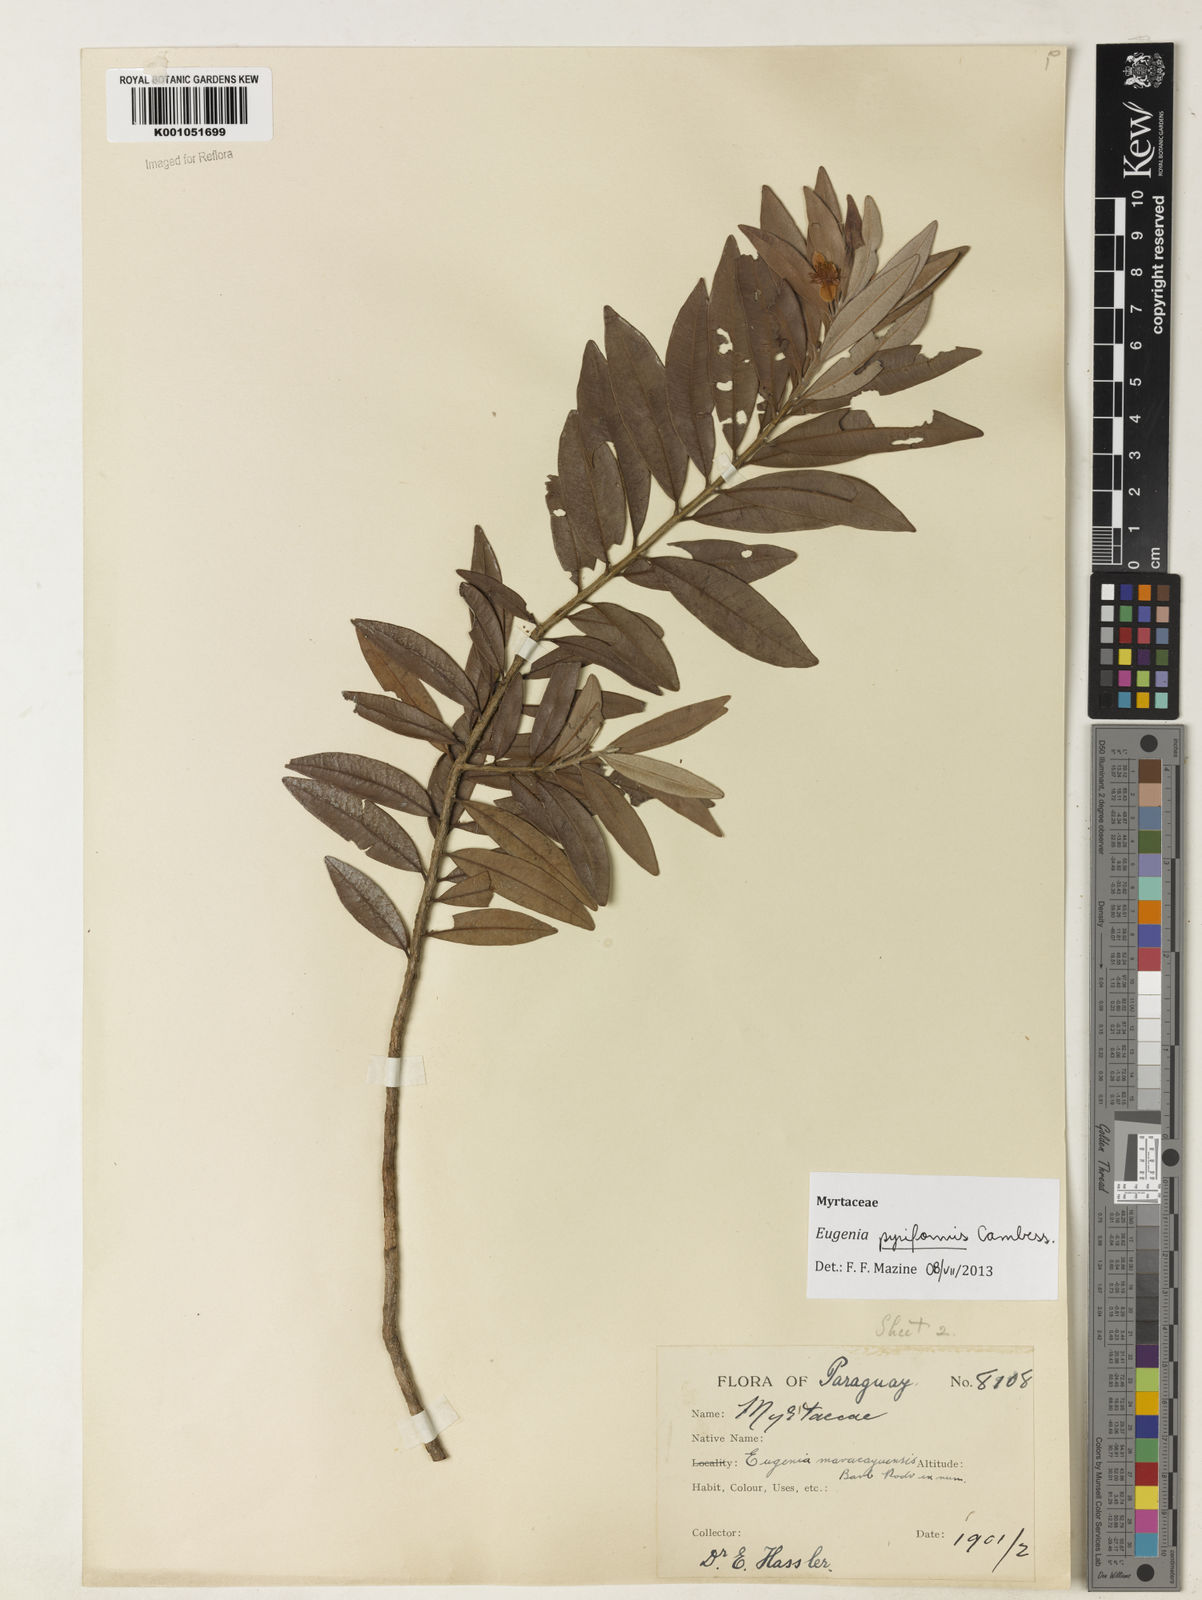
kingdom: Plantae
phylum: Tracheophyta
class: Magnoliopsida
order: Myrtales
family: Myrtaceae
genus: Eugenia
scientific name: Eugenia pyriformis
